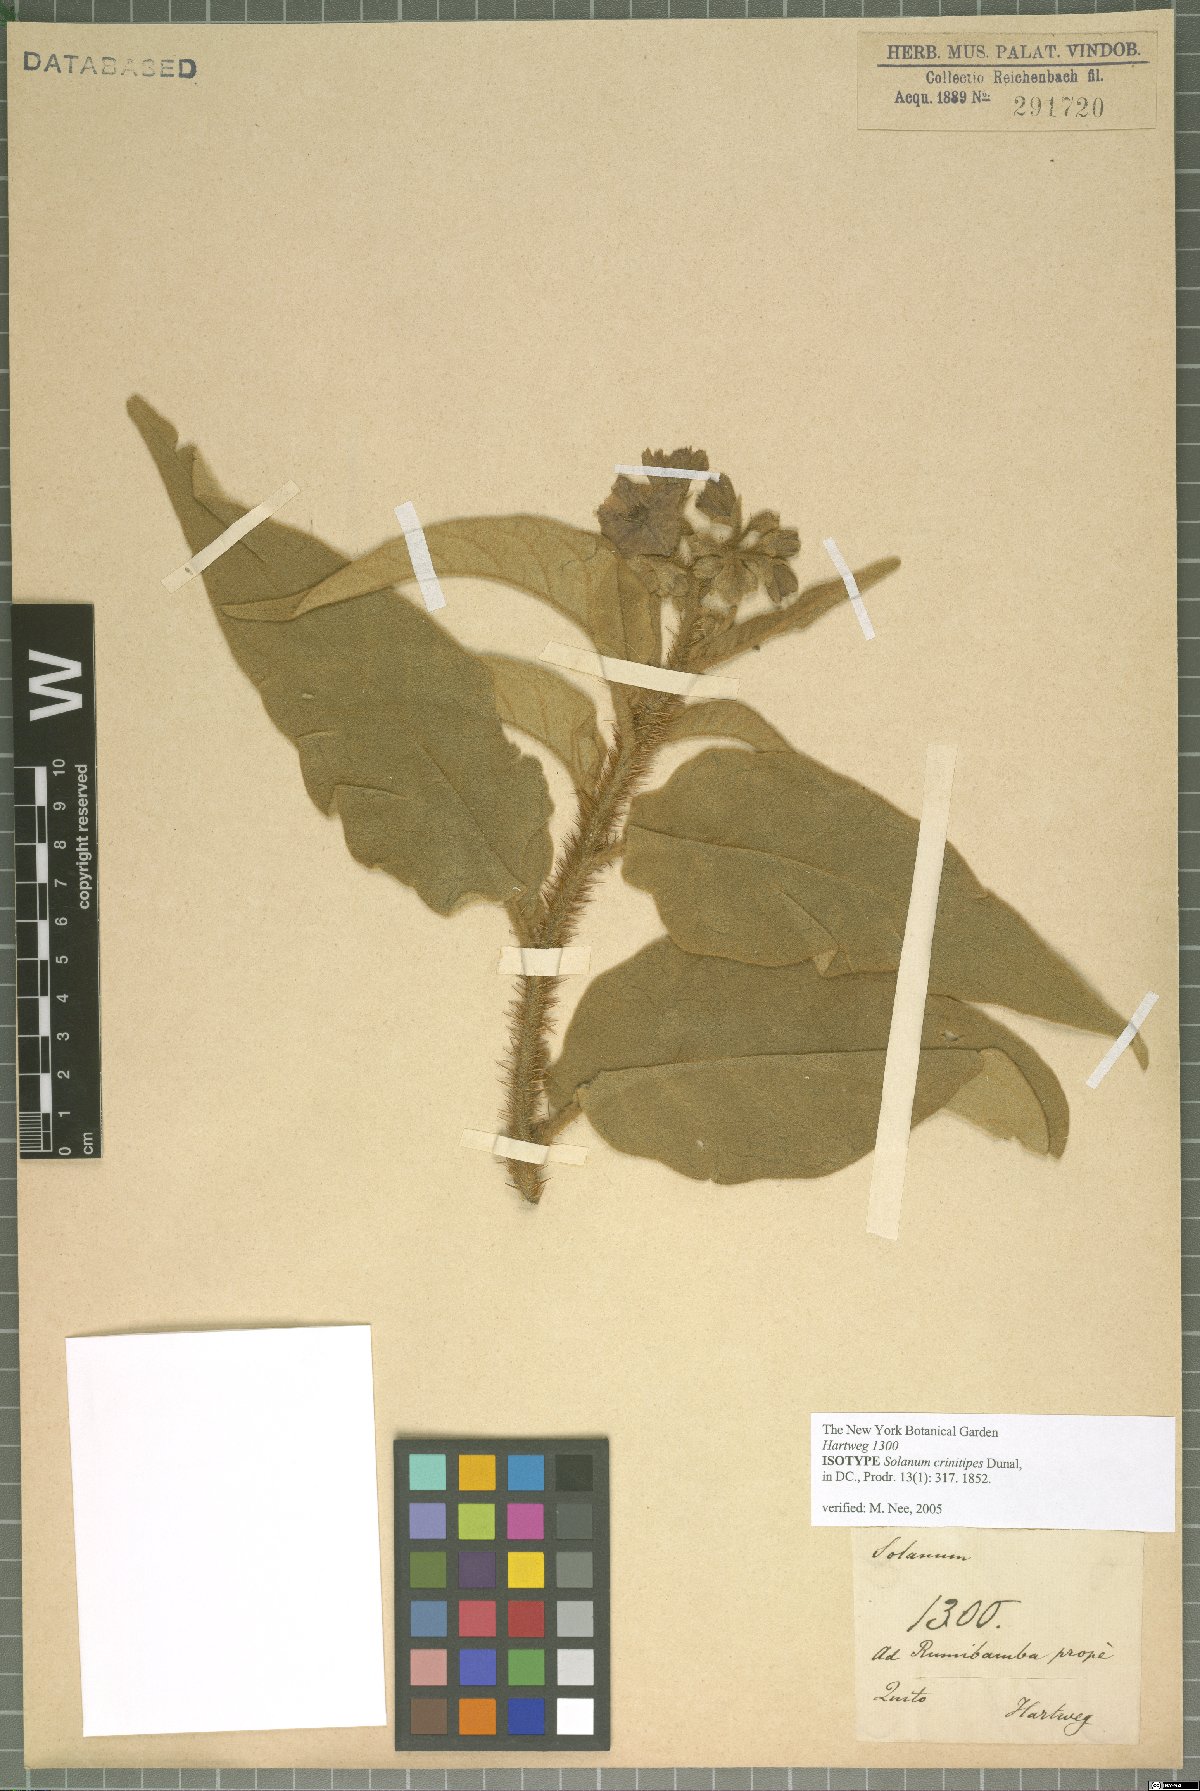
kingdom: Plantae
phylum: Tracheophyta
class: Magnoliopsida
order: Solanales
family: Solanaceae
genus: Solanum
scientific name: Solanum crinitipes
